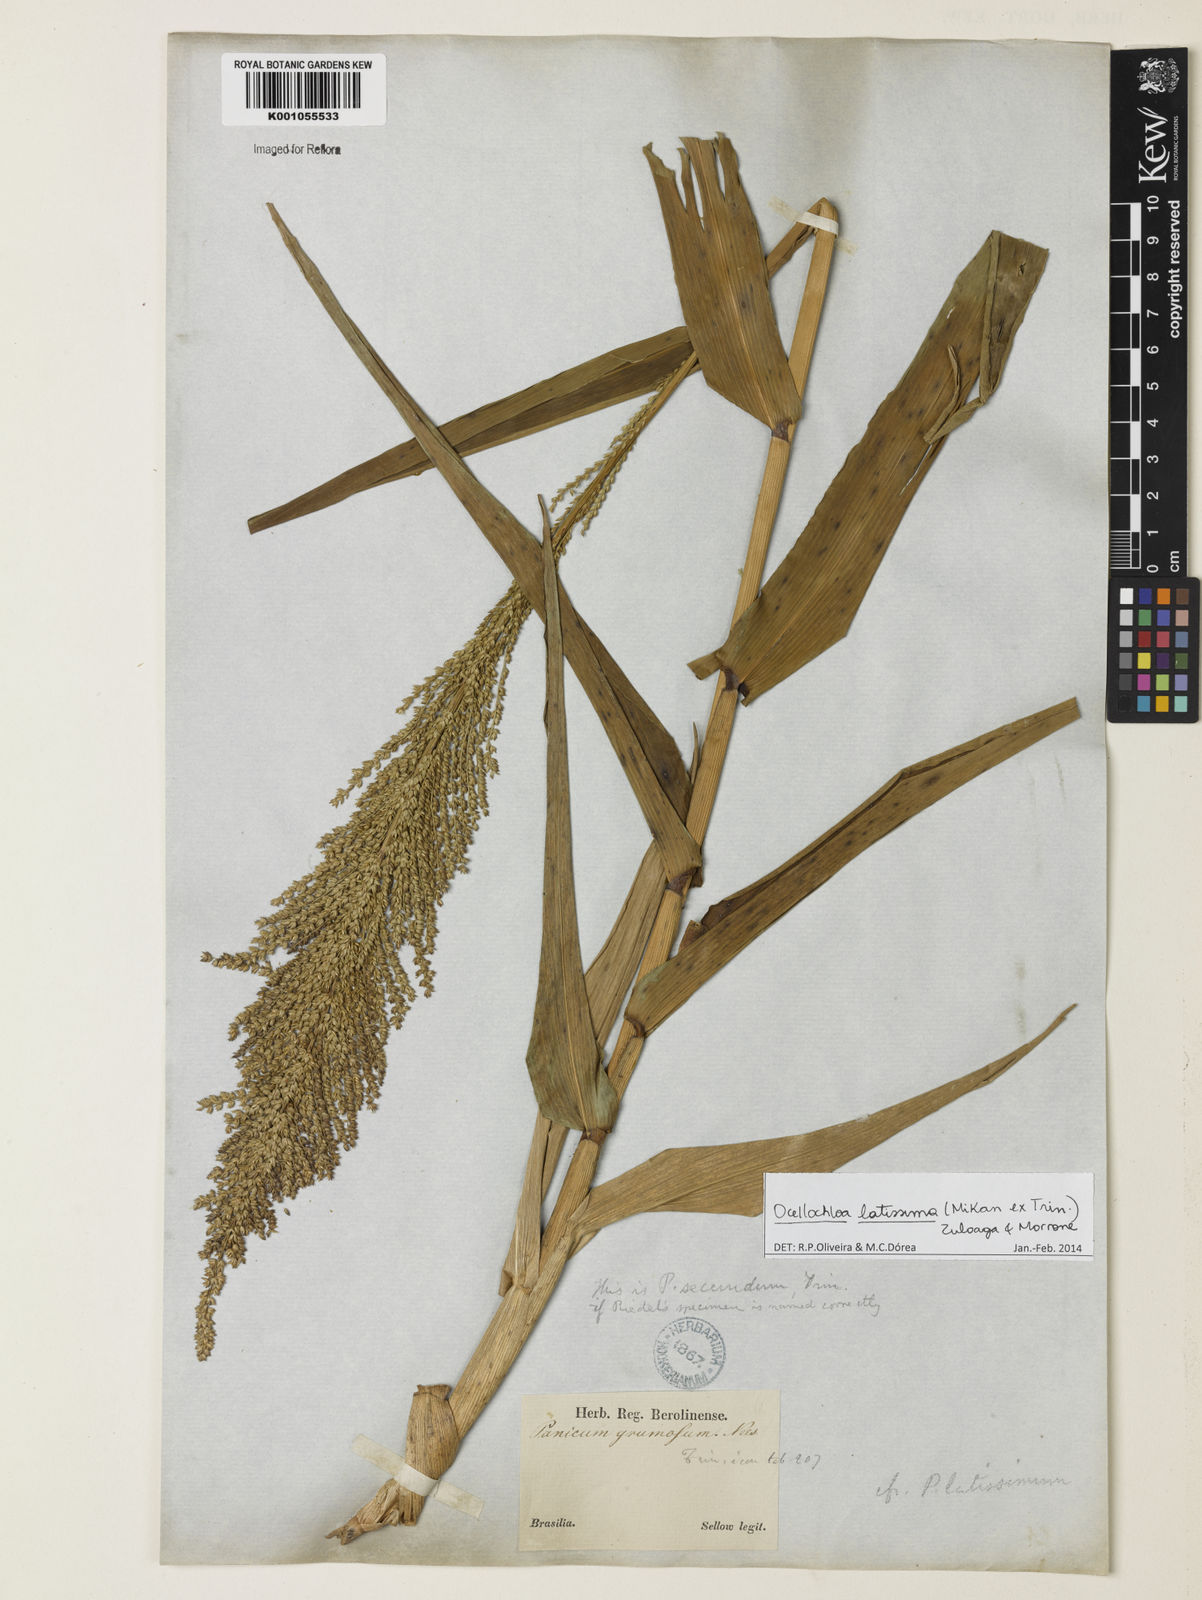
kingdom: Plantae
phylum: Tracheophyta
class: Liliopsida
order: Poales
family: Poaceae
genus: Ocellochloa
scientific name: Ocellochloa latissima
